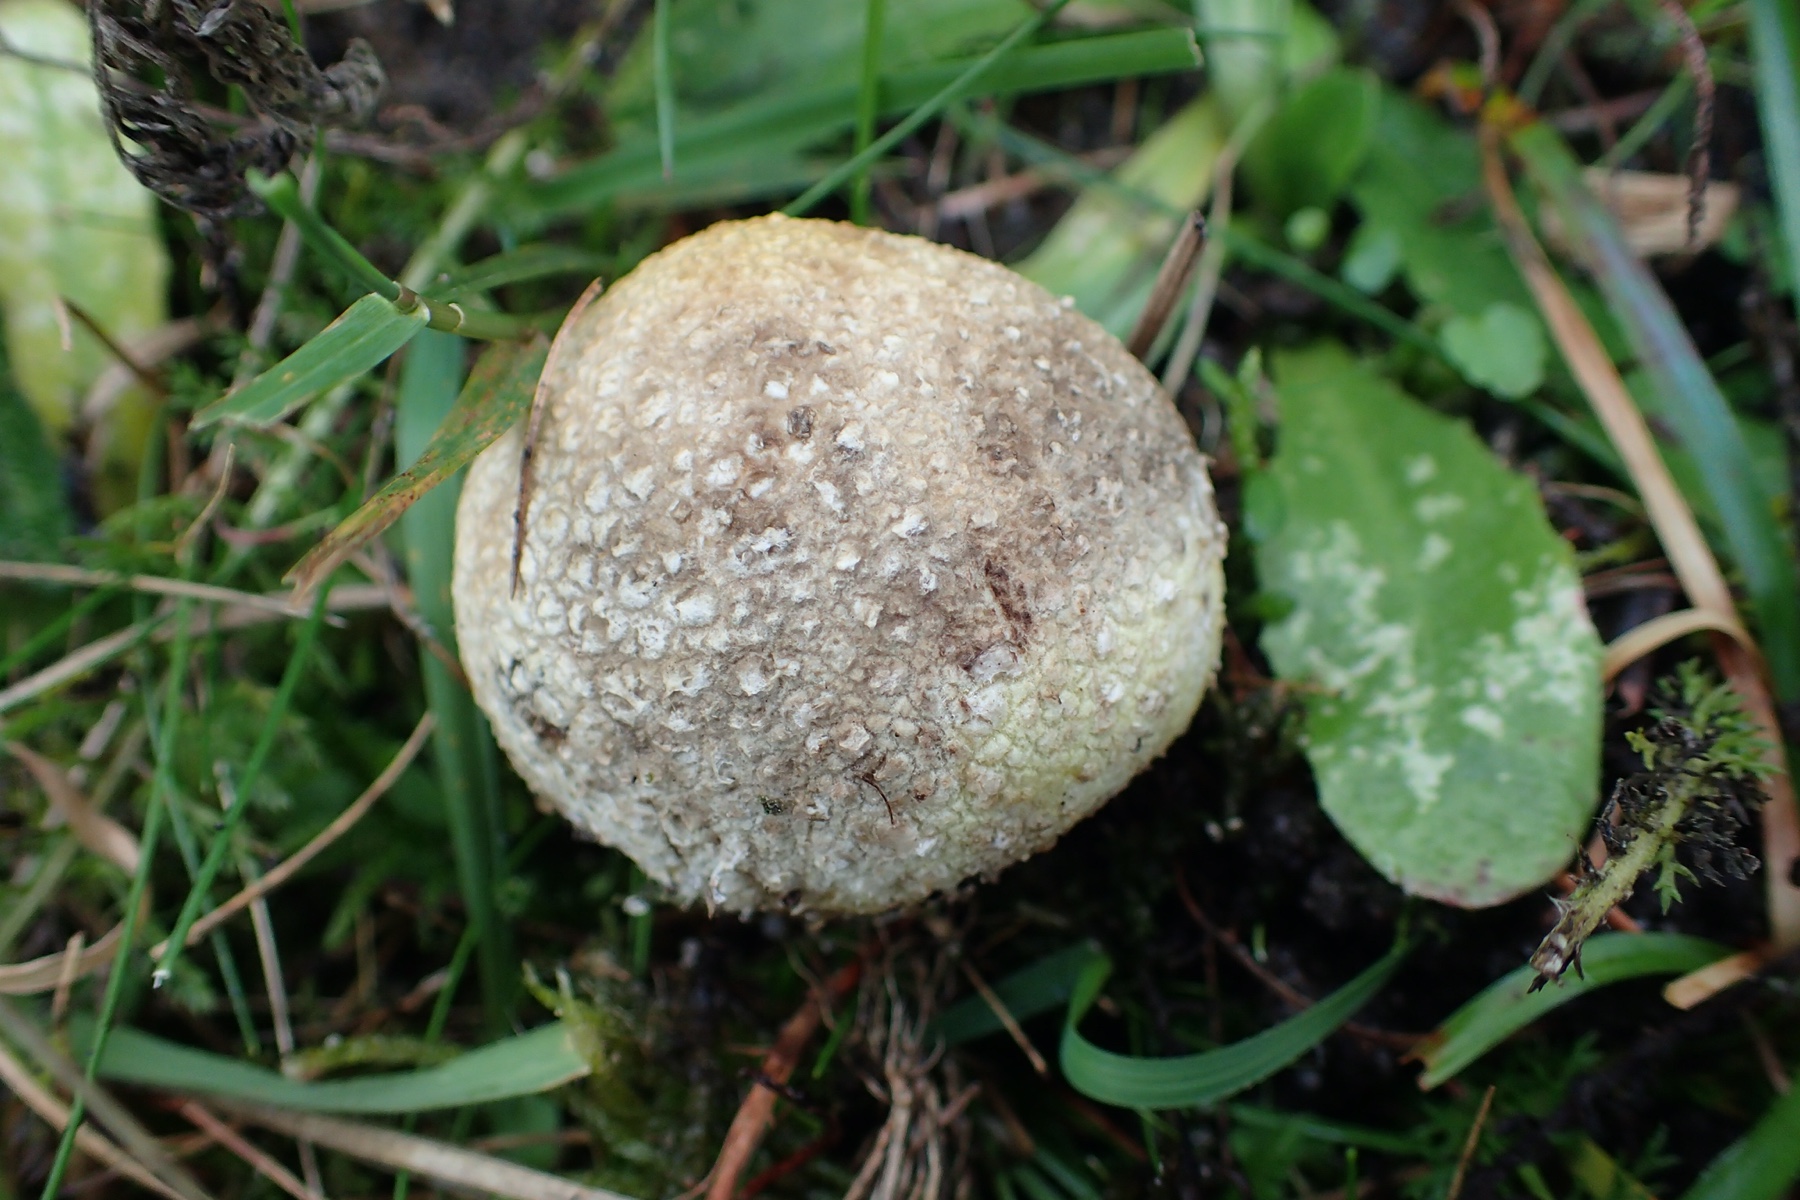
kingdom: Fungi
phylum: Basidiomycota
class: Agaricomycetes
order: Boletales
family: Sclerodermataceae
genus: Scleroderma
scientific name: Scleroderma citrinum
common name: almindelig bruskbold
